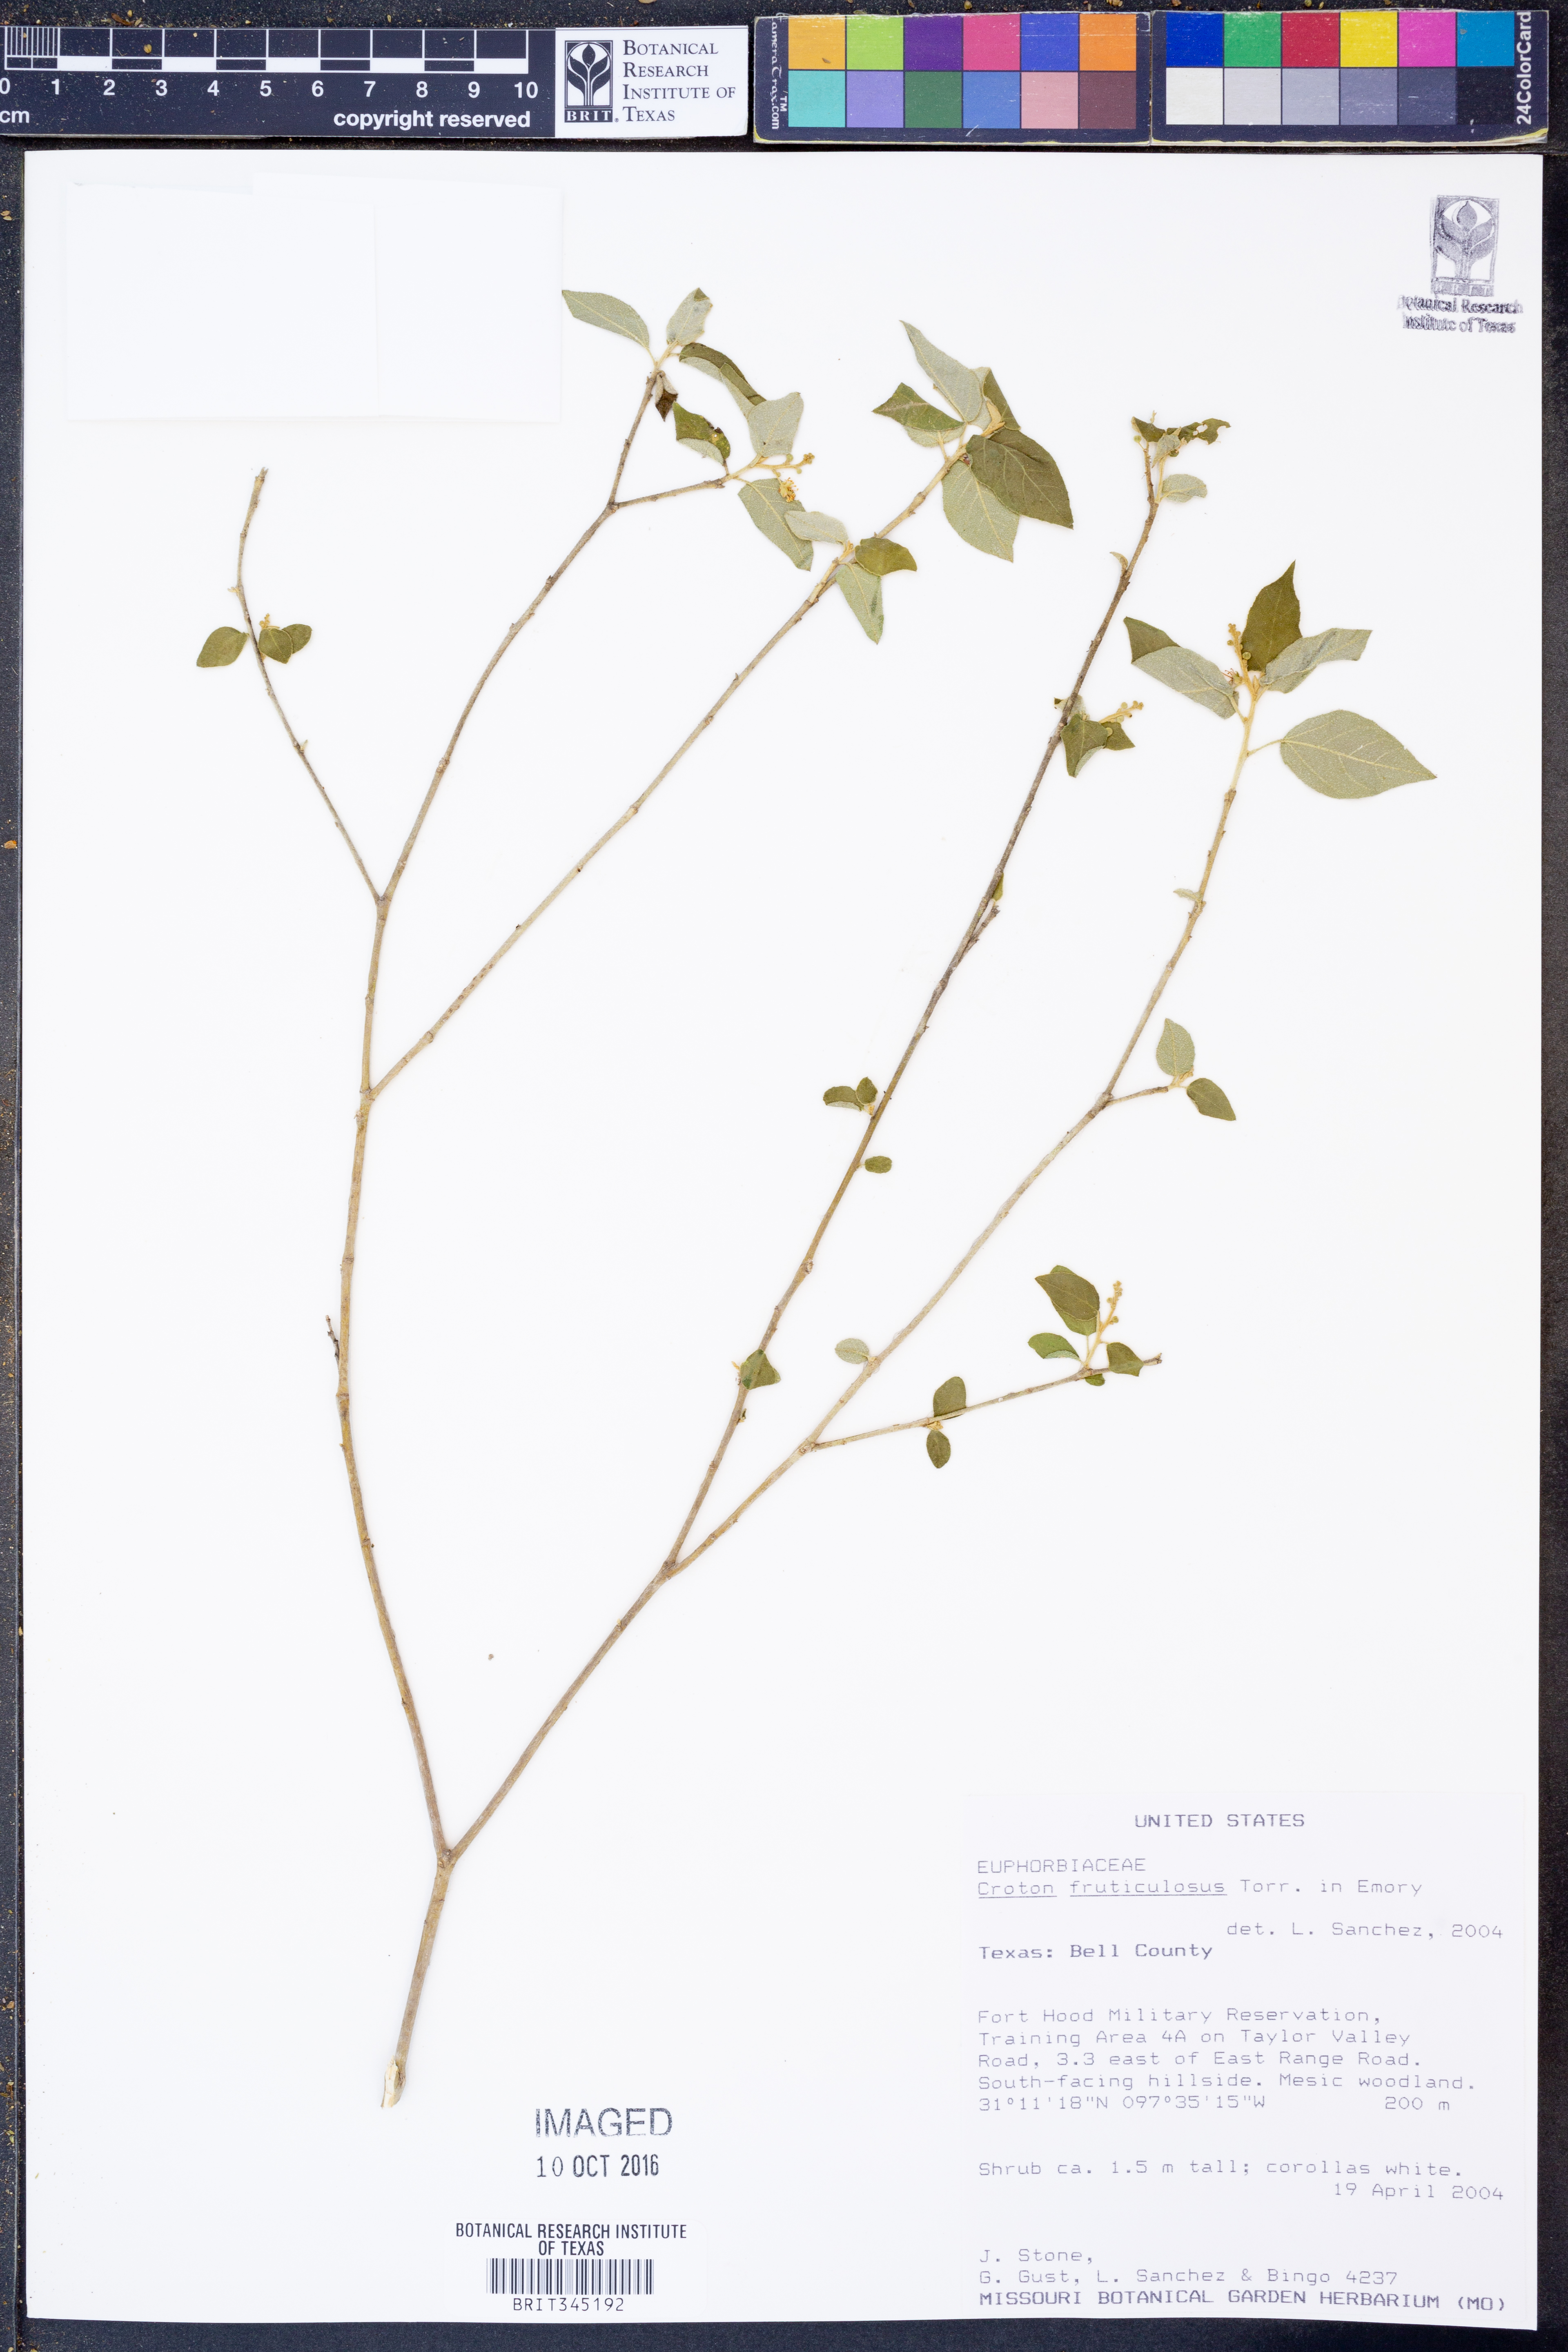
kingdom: Plantae
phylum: Tracheophyta
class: Magnoliopsida
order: Malpighiales
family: Euphorbiaceae
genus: Croton
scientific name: Croton fruticulosus
